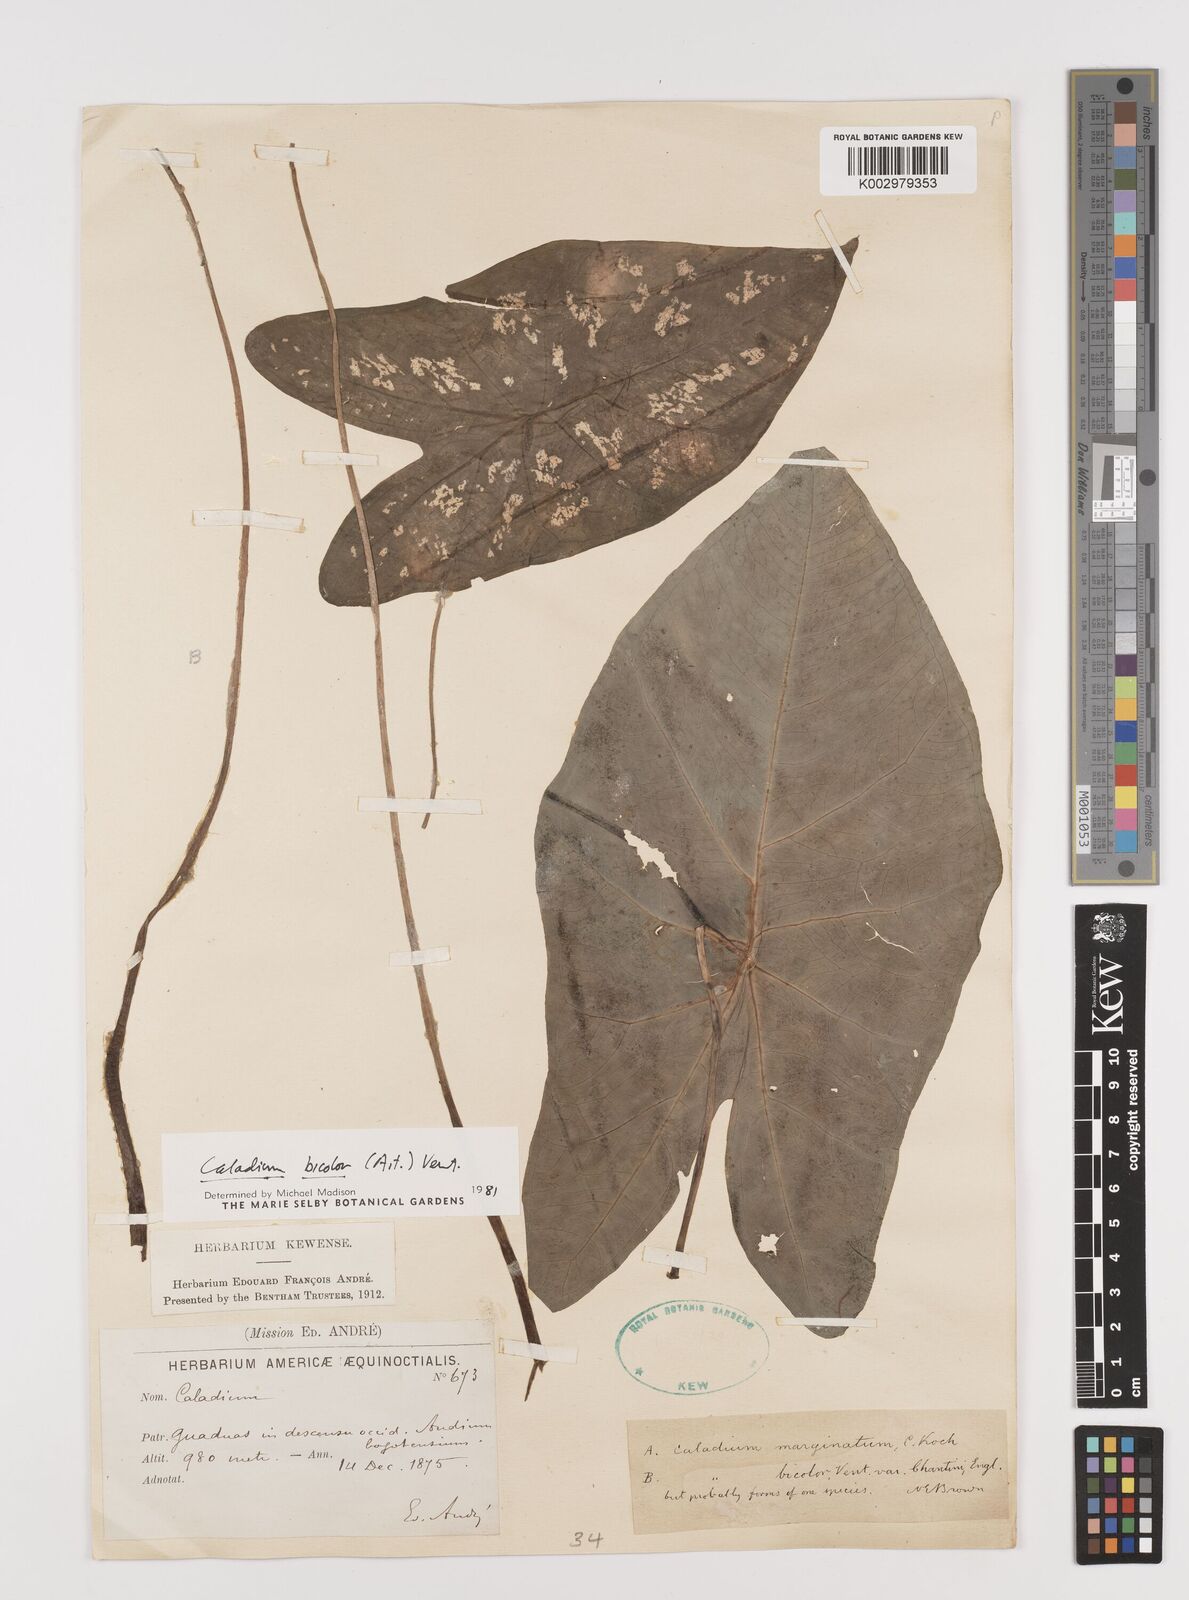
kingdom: Plantae
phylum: Tracheophyta
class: Liliopsida
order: Alismatales
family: Araceae
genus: Caladium
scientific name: Caladium bicolor
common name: Artist's pallet
